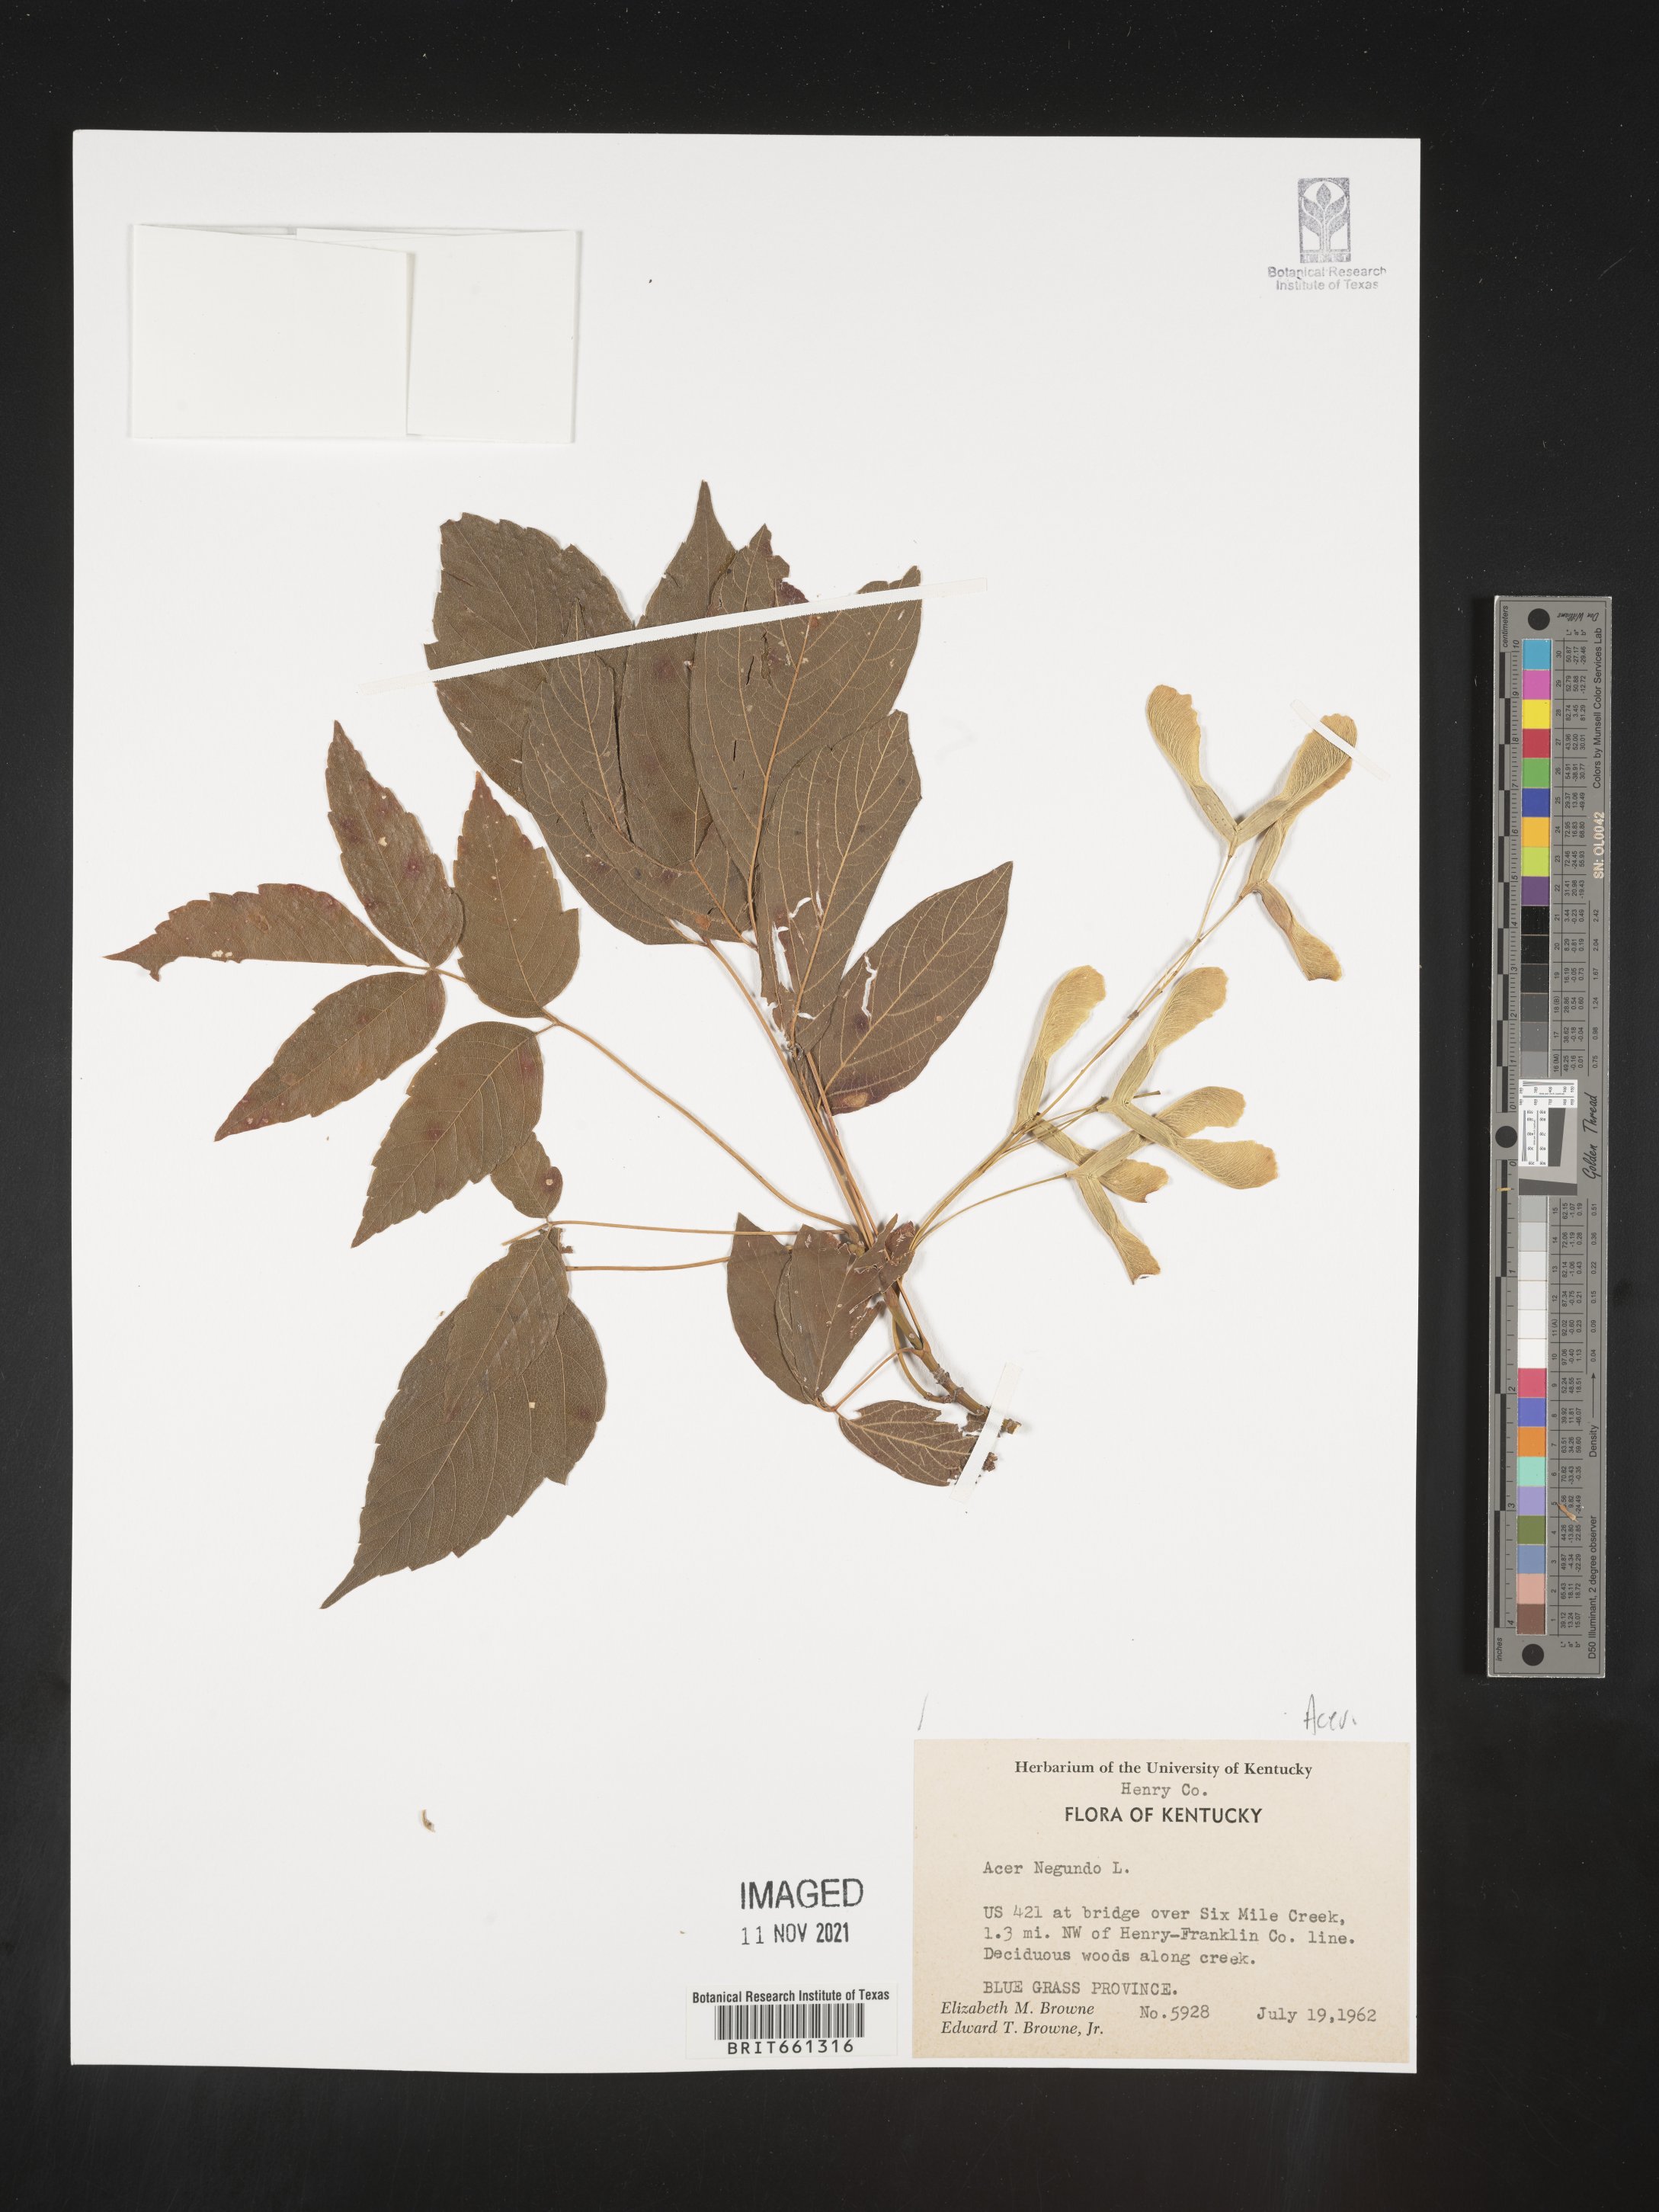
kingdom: Plantae
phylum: Tracheophyta
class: Magnoliopsida
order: Sapindales
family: Sapindaceae
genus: Acer
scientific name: Acer negundo
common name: Ashleaf maple
